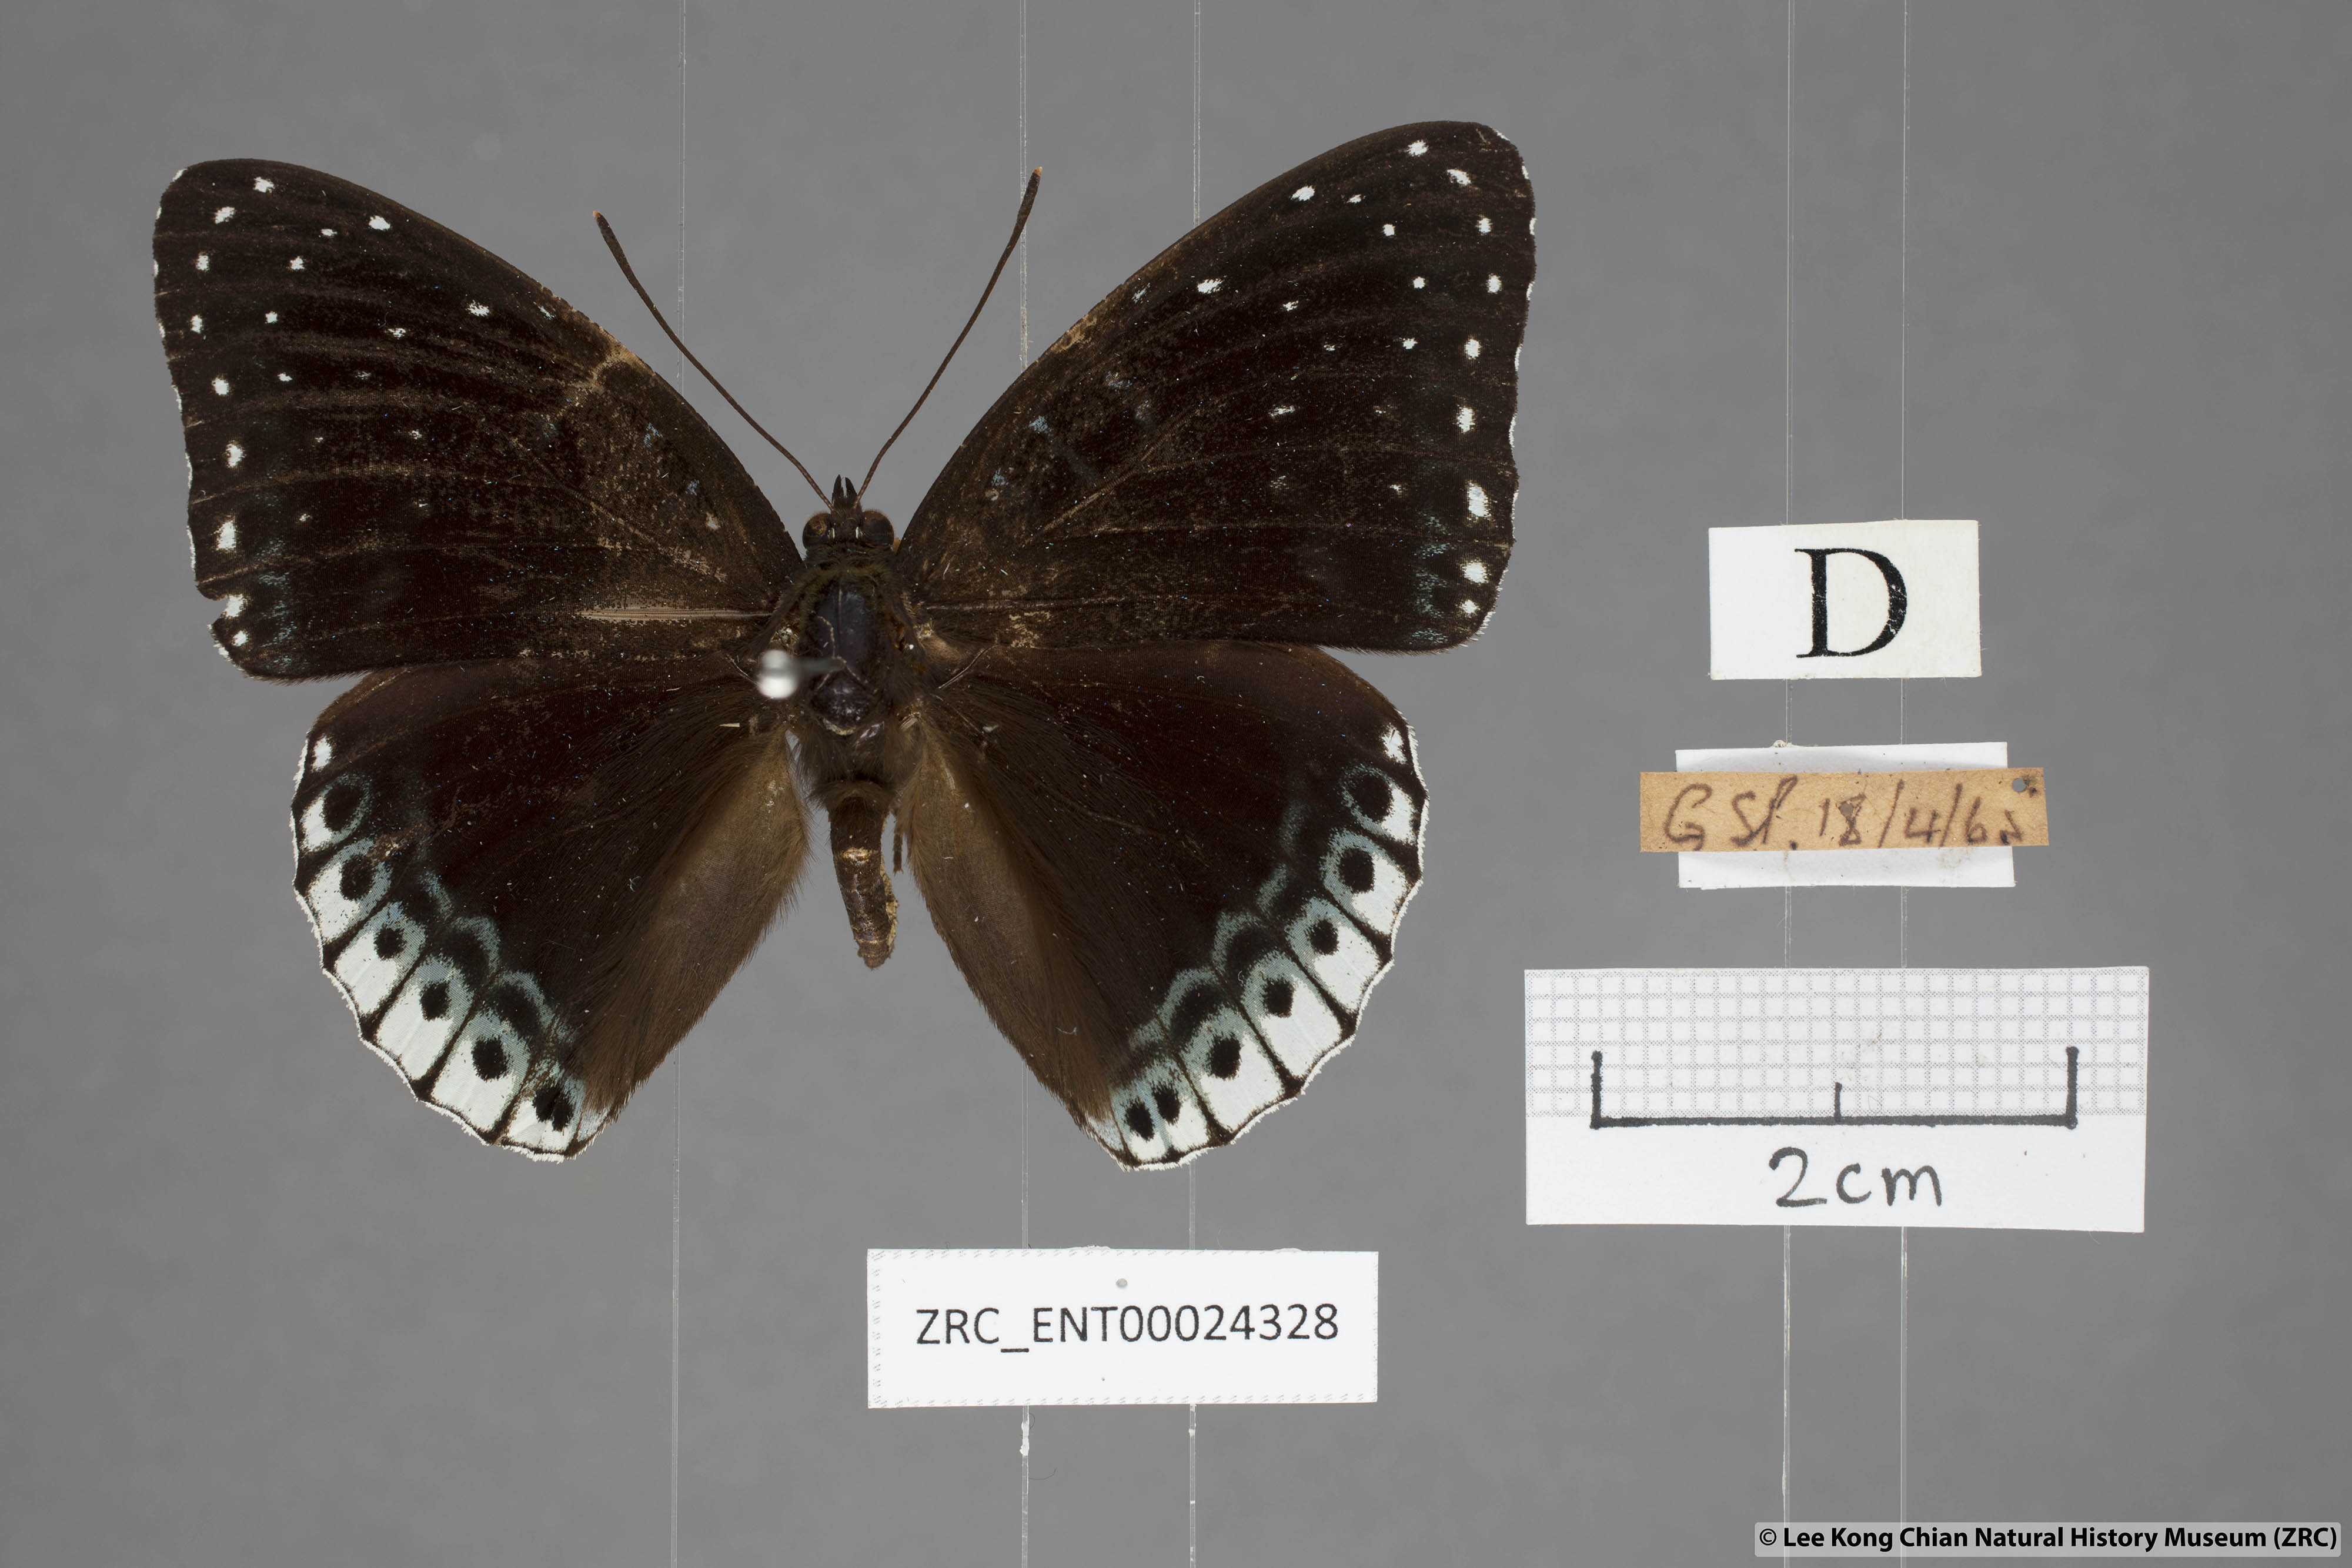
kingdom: Animalia
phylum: Arthropoda
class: Insecta
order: Lepidoptera
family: Nymphalidae
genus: Stibochiona
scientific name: Stibochiona nicea
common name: Popinjay
